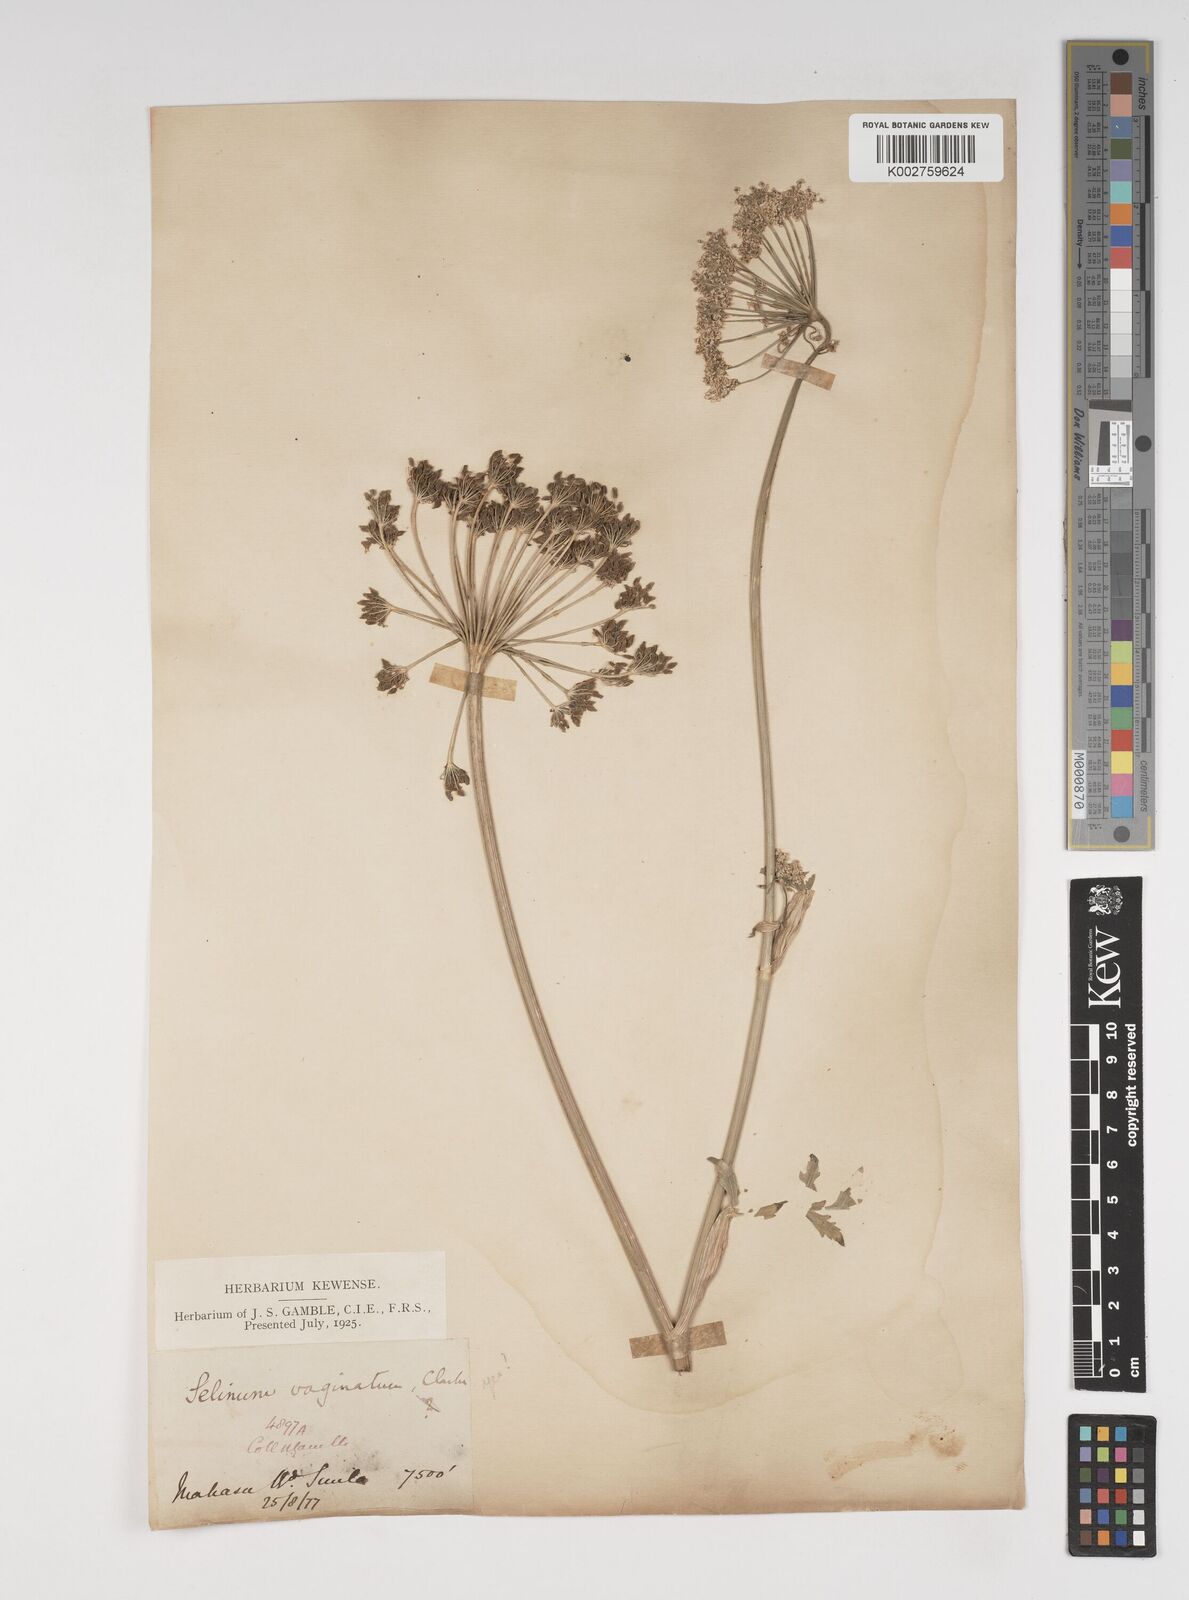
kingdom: Plantae
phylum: Tracheophyta
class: Magnoliopsida
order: Apiales
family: Apiaceae
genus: Selinum
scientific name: Selinum vaginatum
